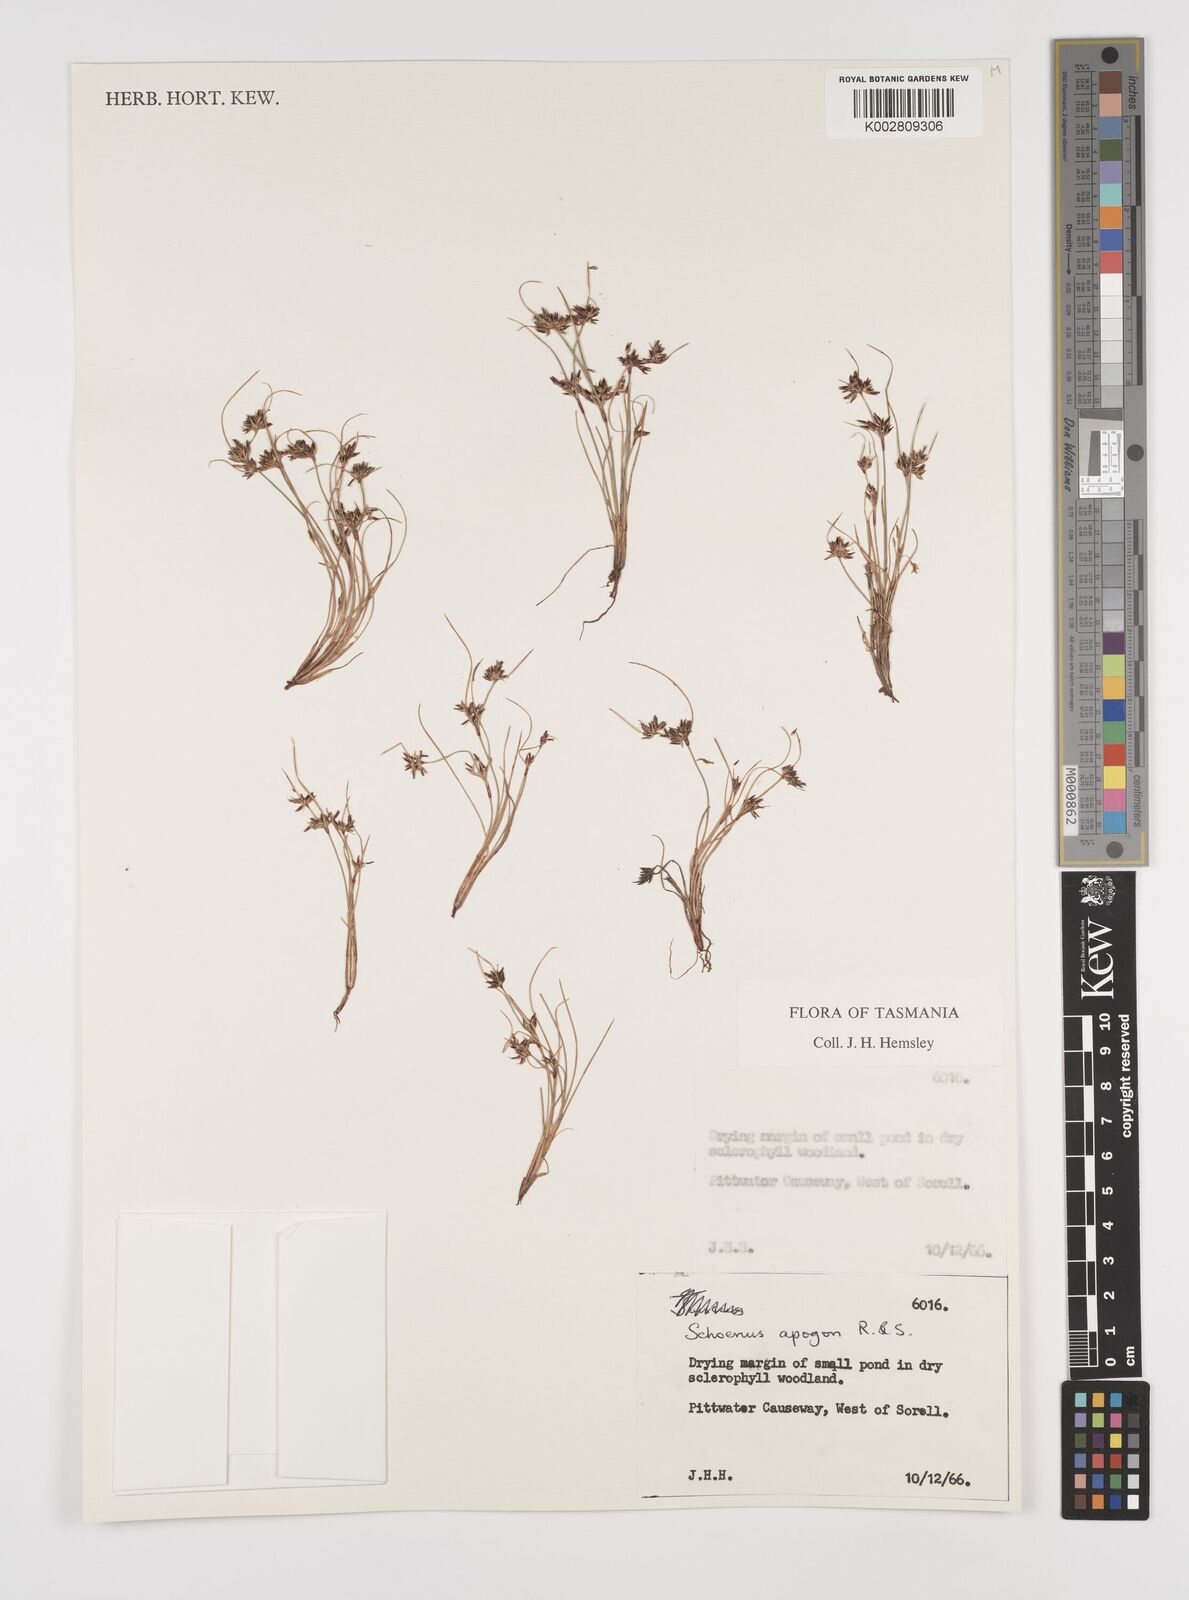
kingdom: Plantae
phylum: Tracheophyta
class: Liliopsida
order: Poales
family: Cyperaceae
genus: Schoenus
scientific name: Schoenus apogon
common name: Smooth bogrush
